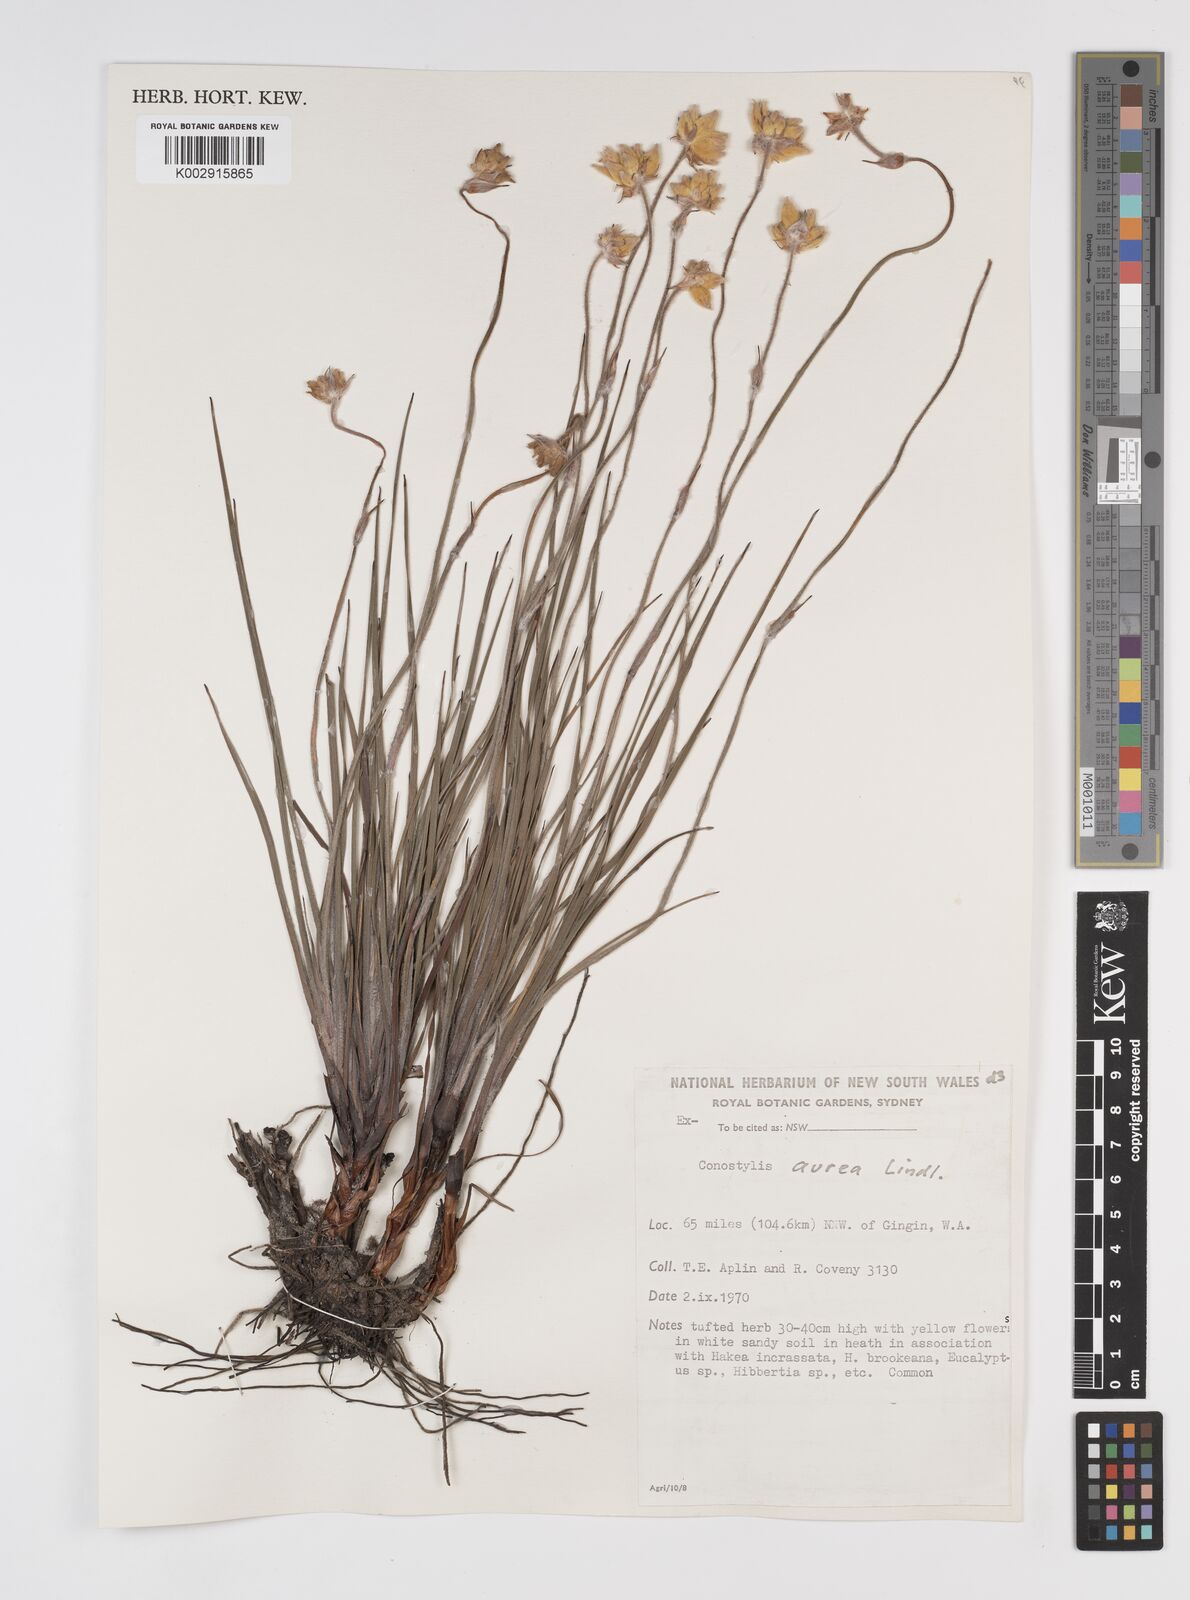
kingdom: Plantae
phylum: Tracheophyta
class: Liliopsida
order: Commelinales
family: Haemodoraceae
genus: Conostylis
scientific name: Conostylis aurea
